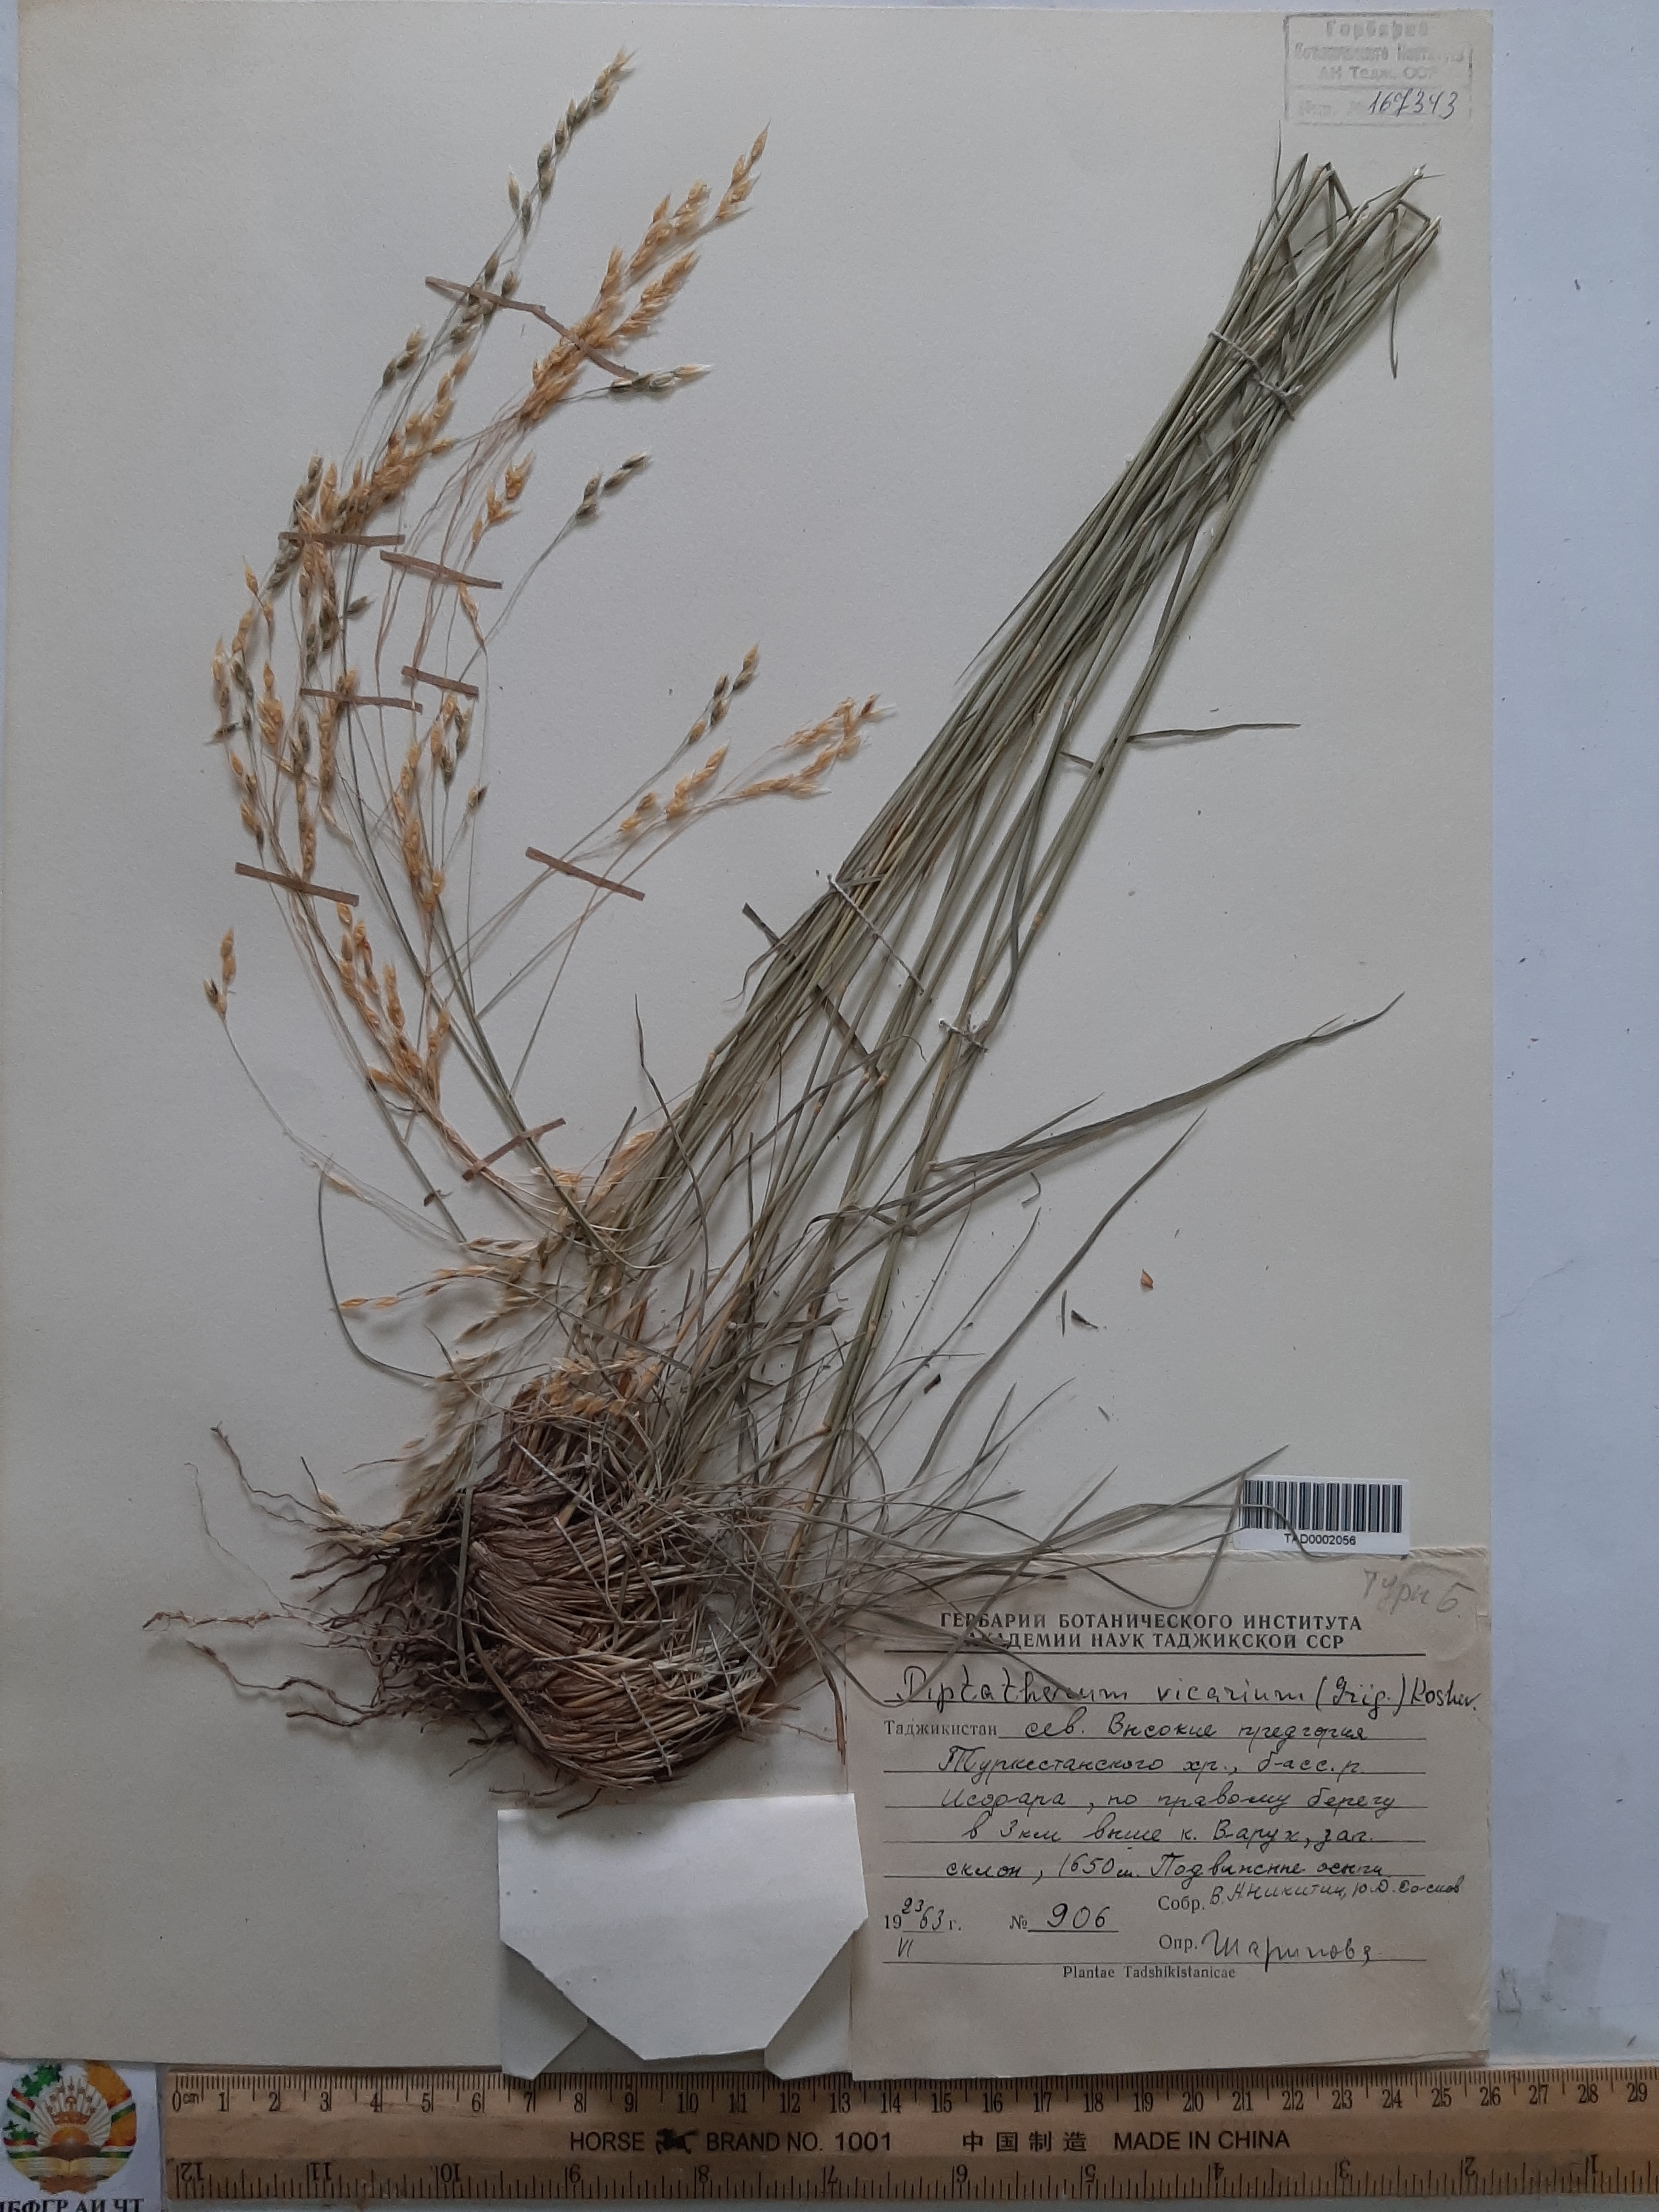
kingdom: Plantae
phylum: Tracheophyta
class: Liliopsida
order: Poales
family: Poaceae
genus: Piptatherum
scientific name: Piptatherum sogdianum
